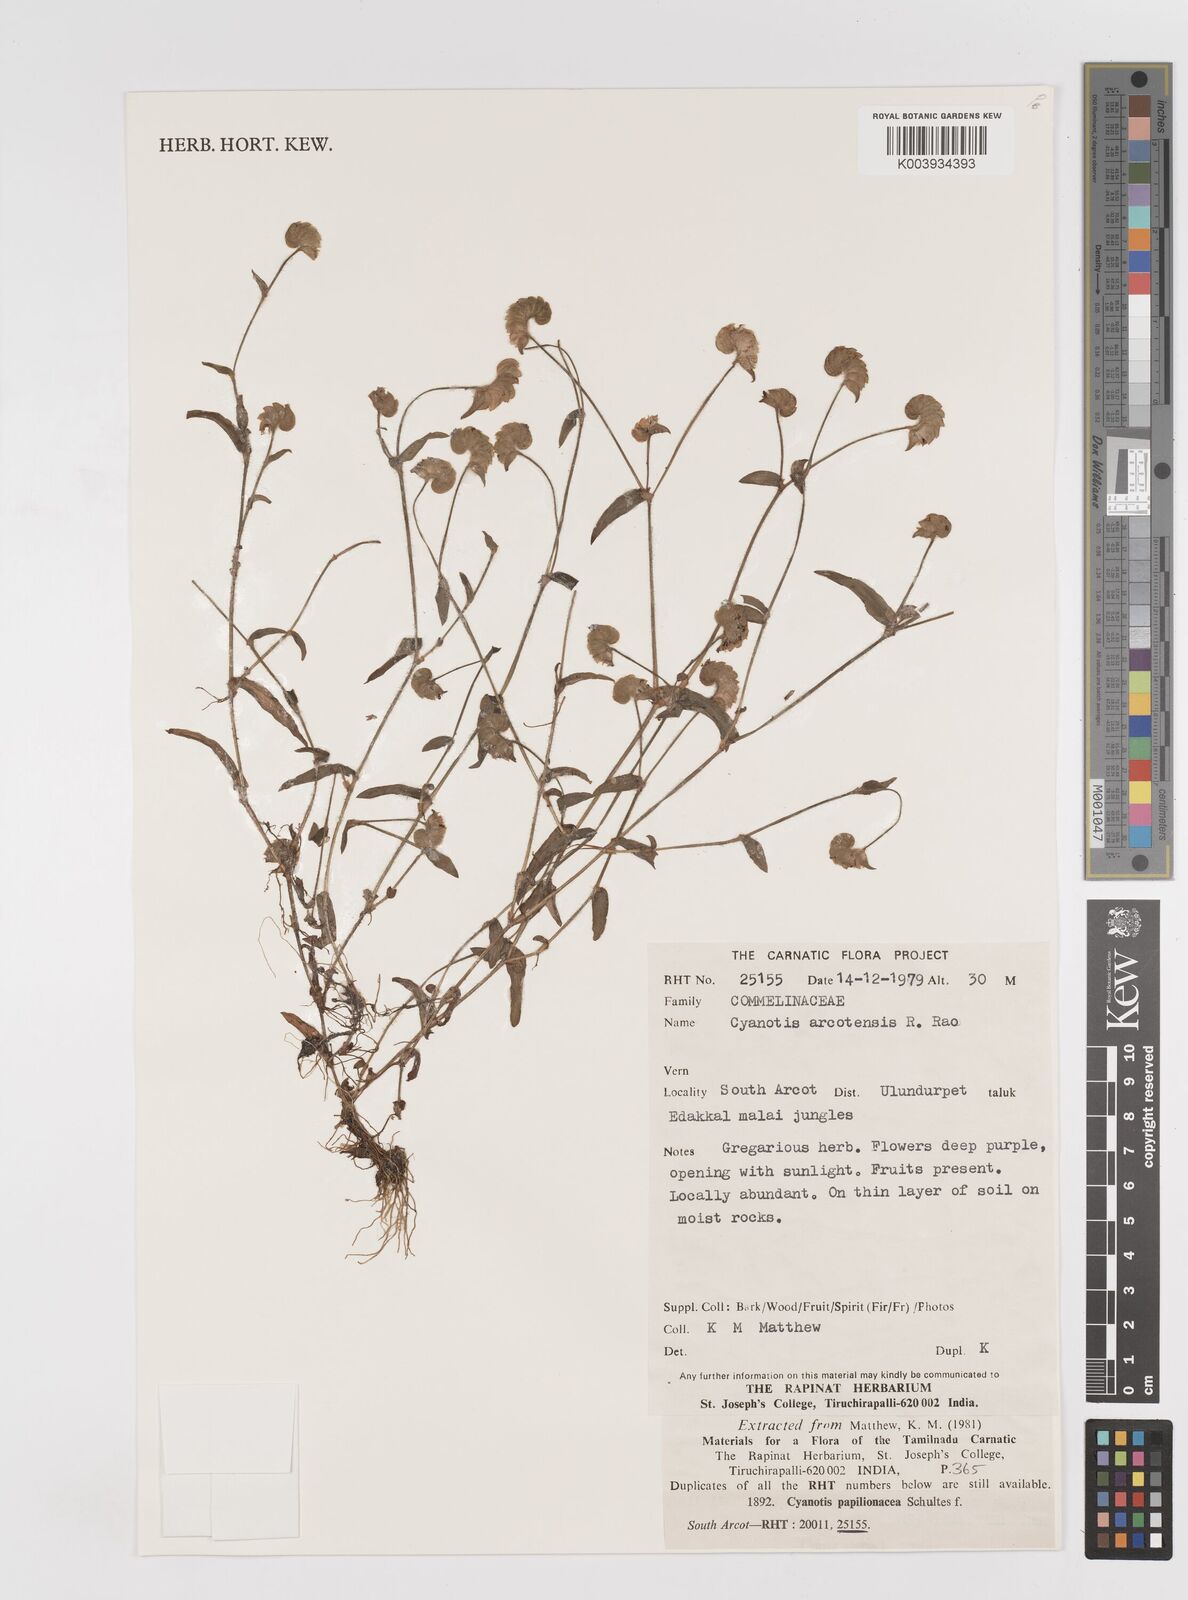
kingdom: Plantae
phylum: Tracheophyta
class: Liliopsida
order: Commelinales
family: Commelinaceae
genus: Cyanotis
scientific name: Cyanotis cristata
